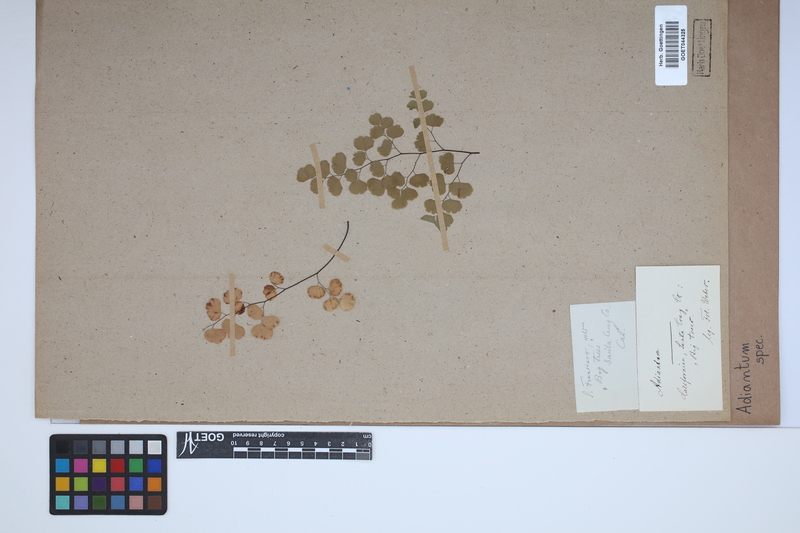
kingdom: Plantae
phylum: Tracheophyta
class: Polypodiopsida
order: Polypodiales
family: Pteridaceae
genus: Adiantum
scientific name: Adiantum
